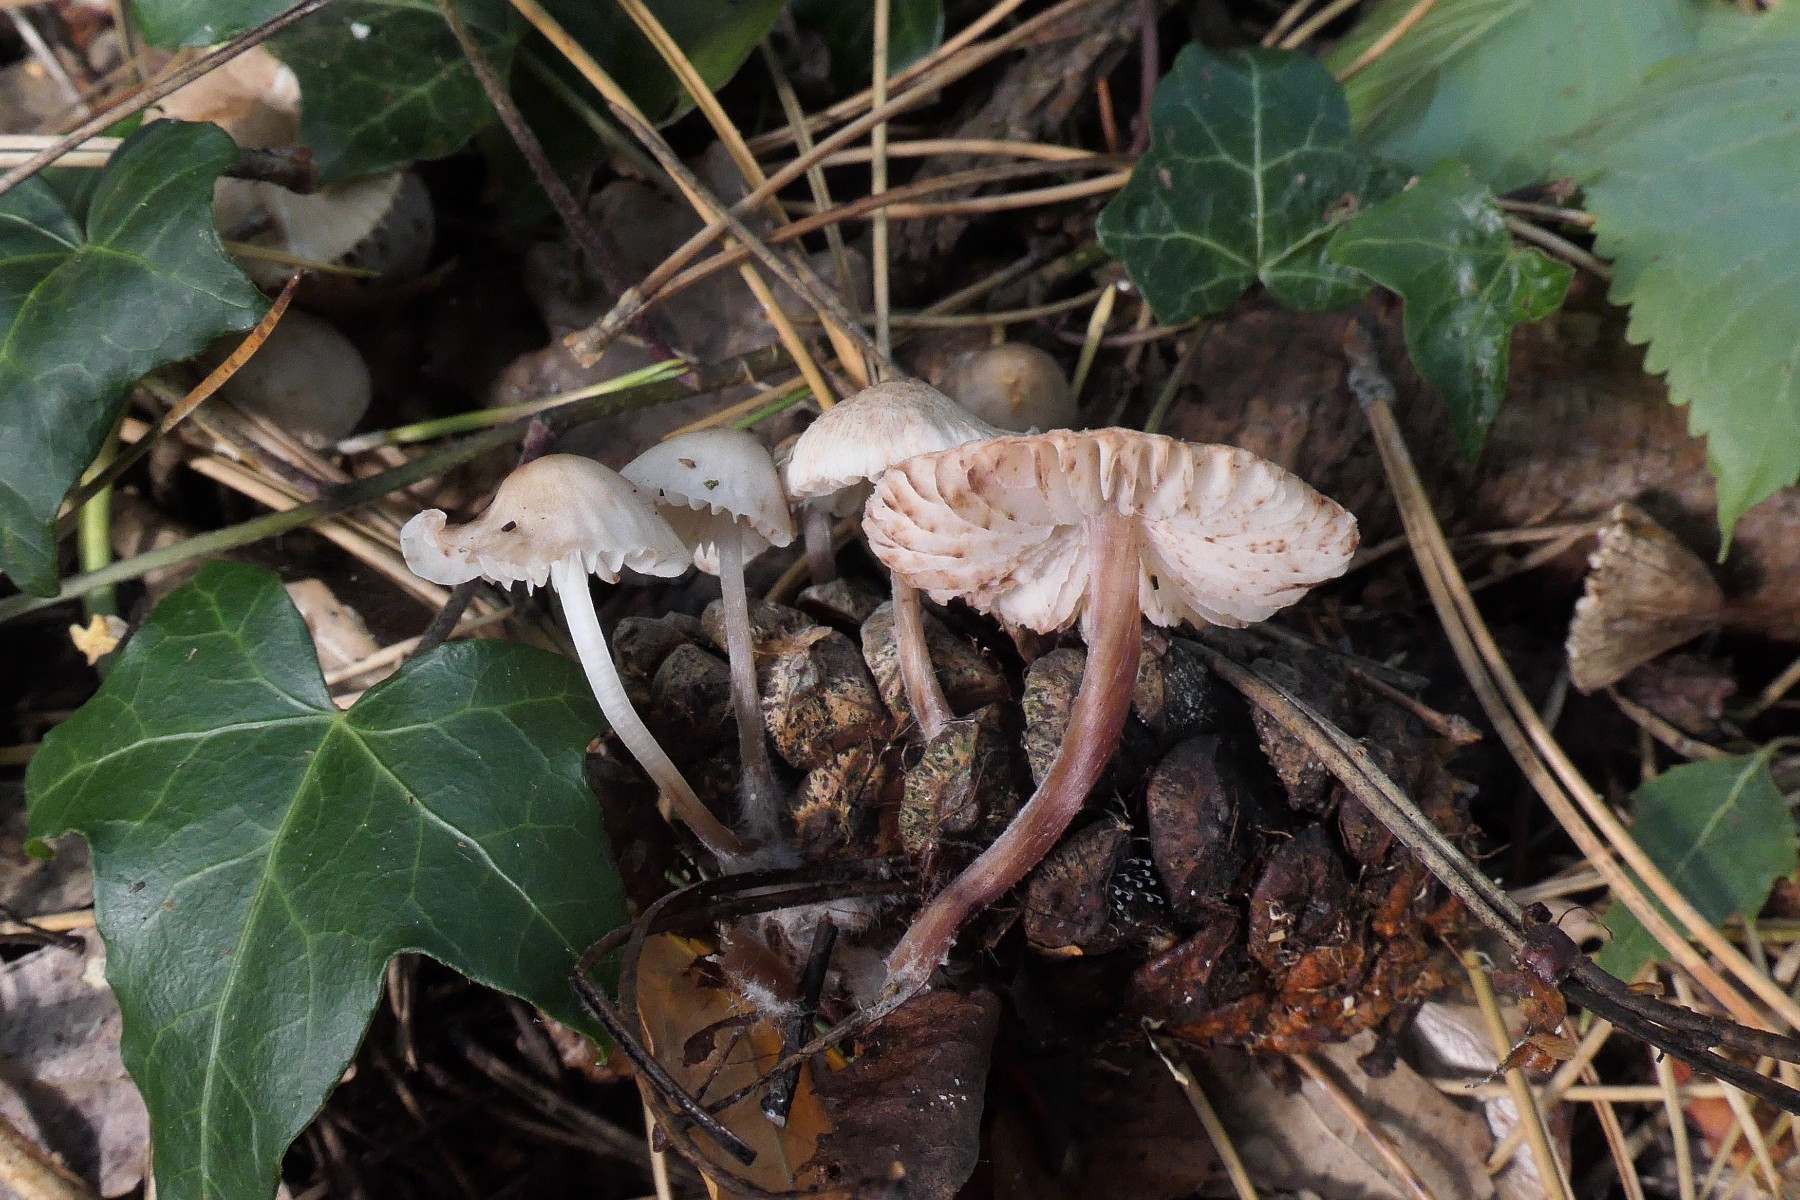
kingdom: Fungi
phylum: Basidiomycota
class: Agaricomycetes
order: Agaricales
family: Mycenaceae
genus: Mycena
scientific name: Mycena zephirus
